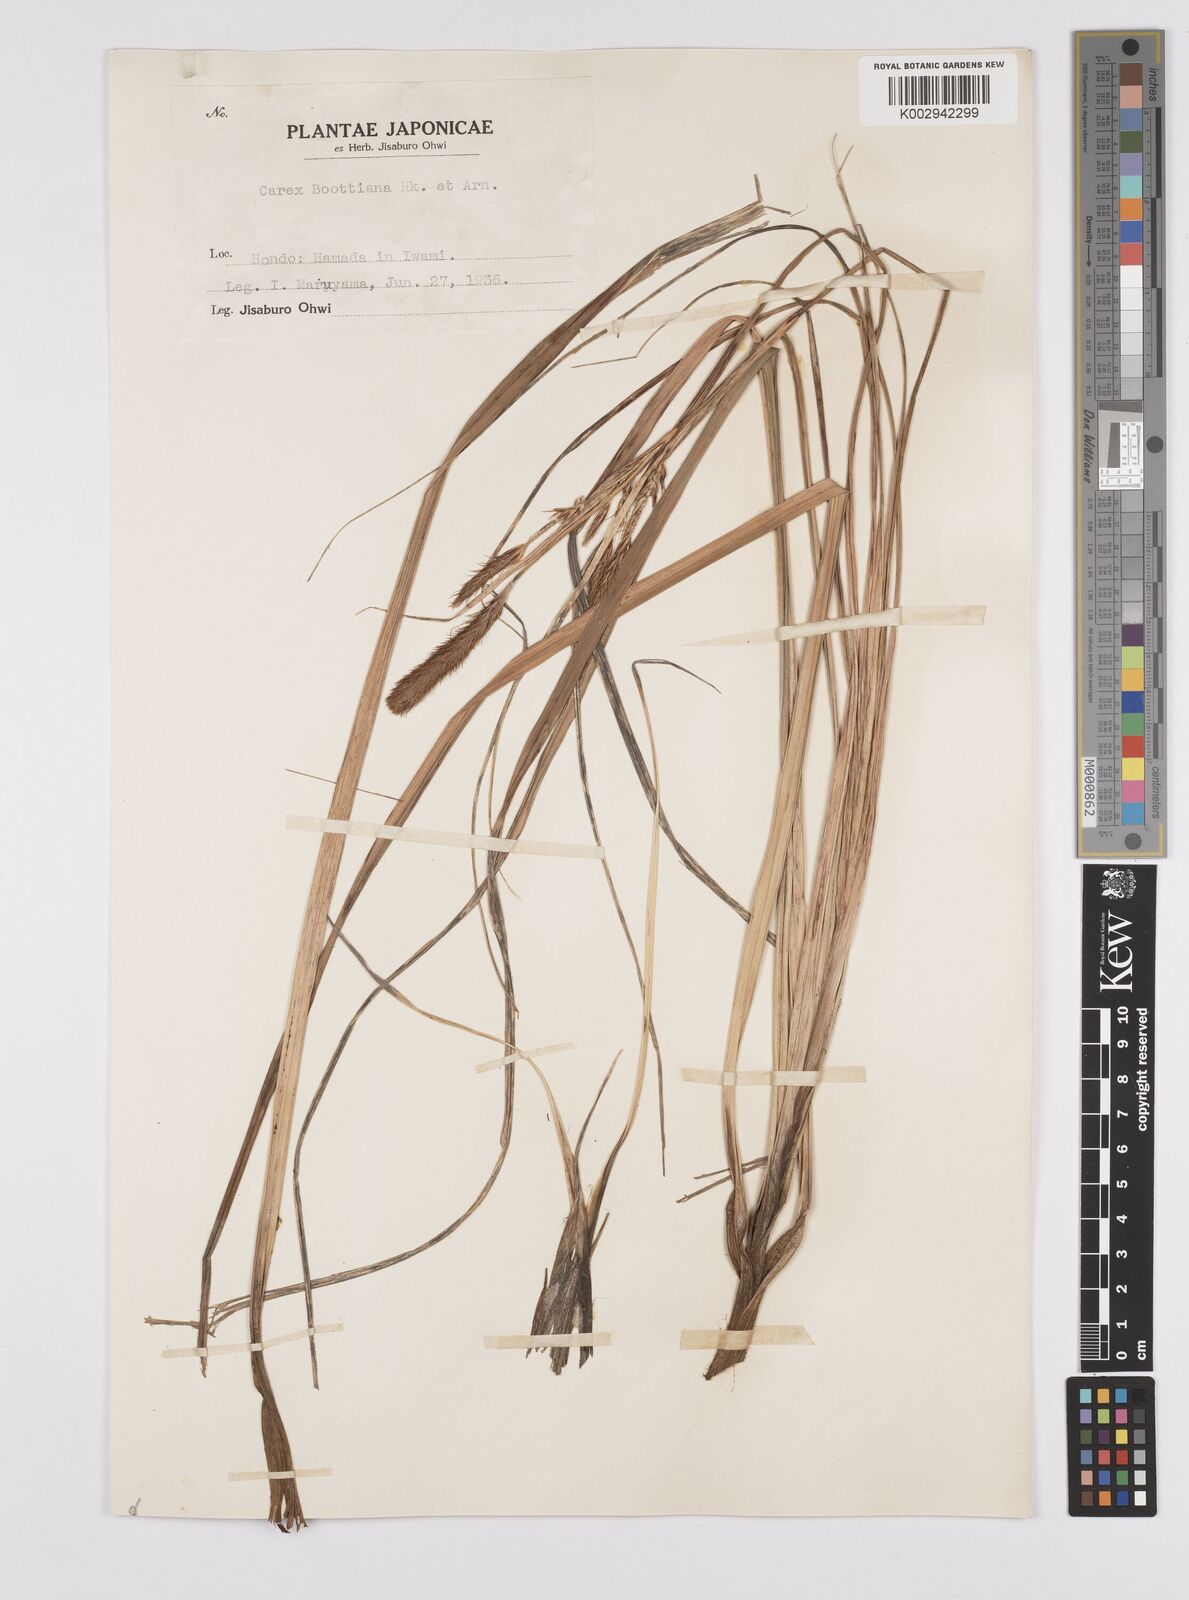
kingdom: Plantae
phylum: Tracheophyta
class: Liliopsida
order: Poales
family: Cyperaceae
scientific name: Cyperaceae
